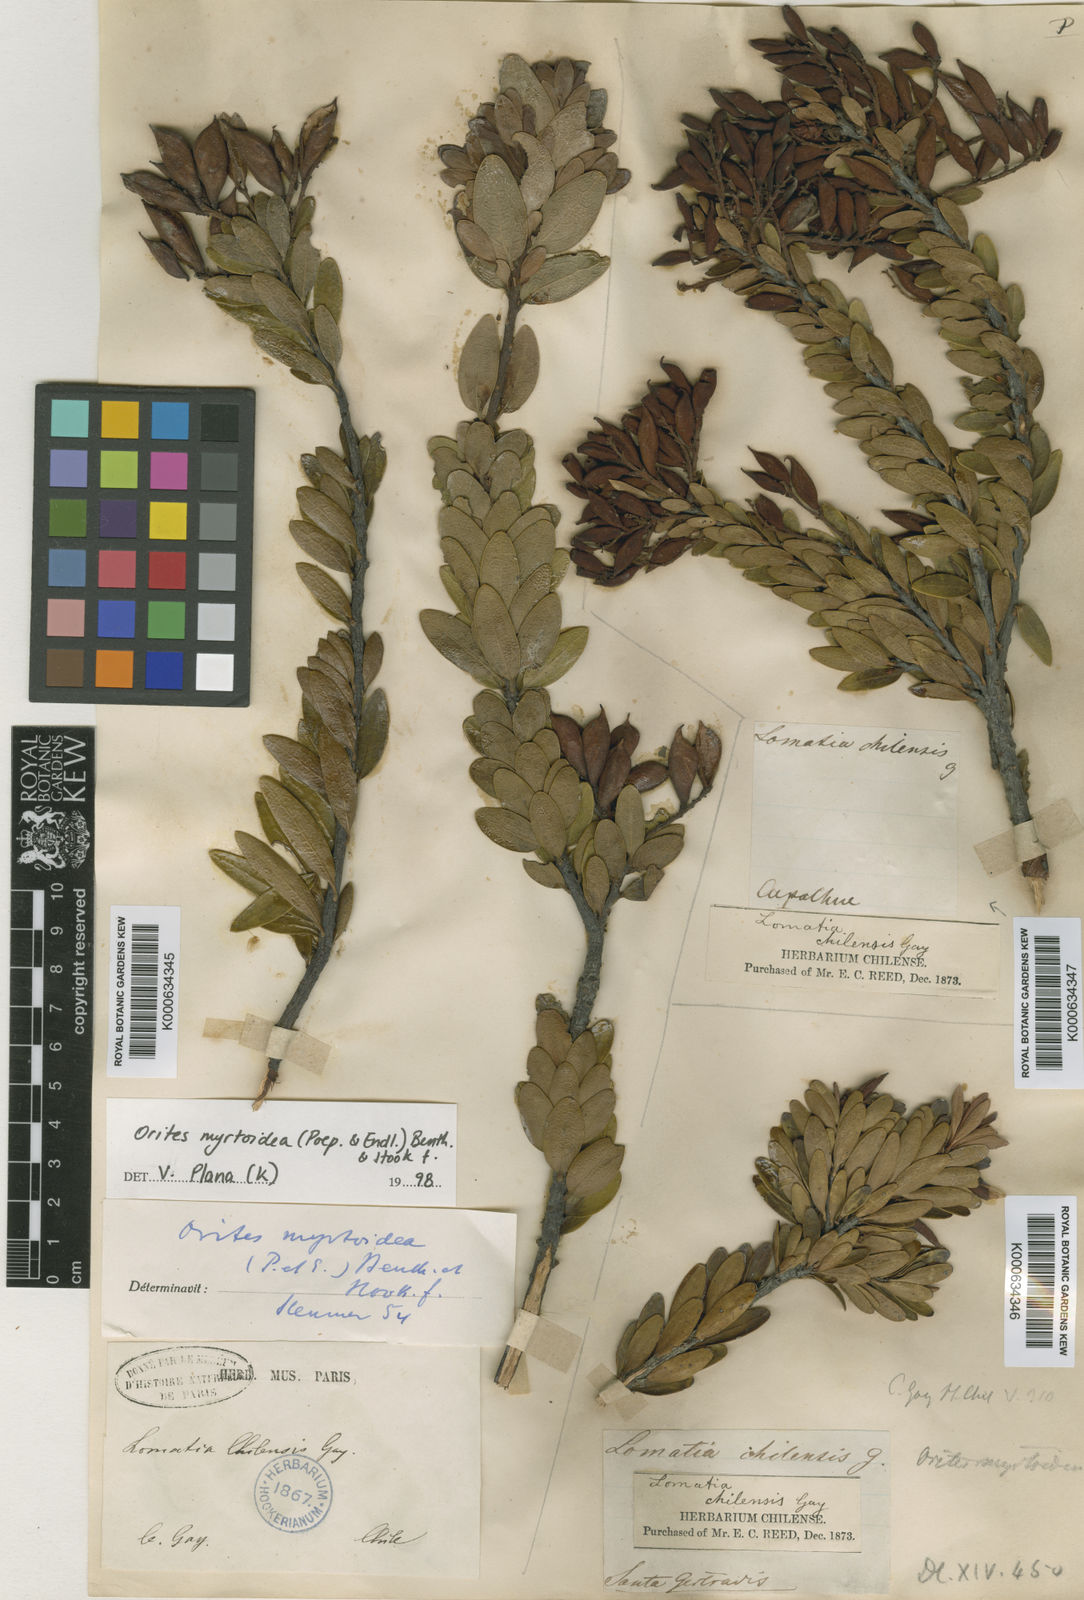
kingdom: Plantae
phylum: Tracheophyta
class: Magnoliopsida
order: Proteales
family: Proteaceae
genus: Orites
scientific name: Orites myrtoideus
